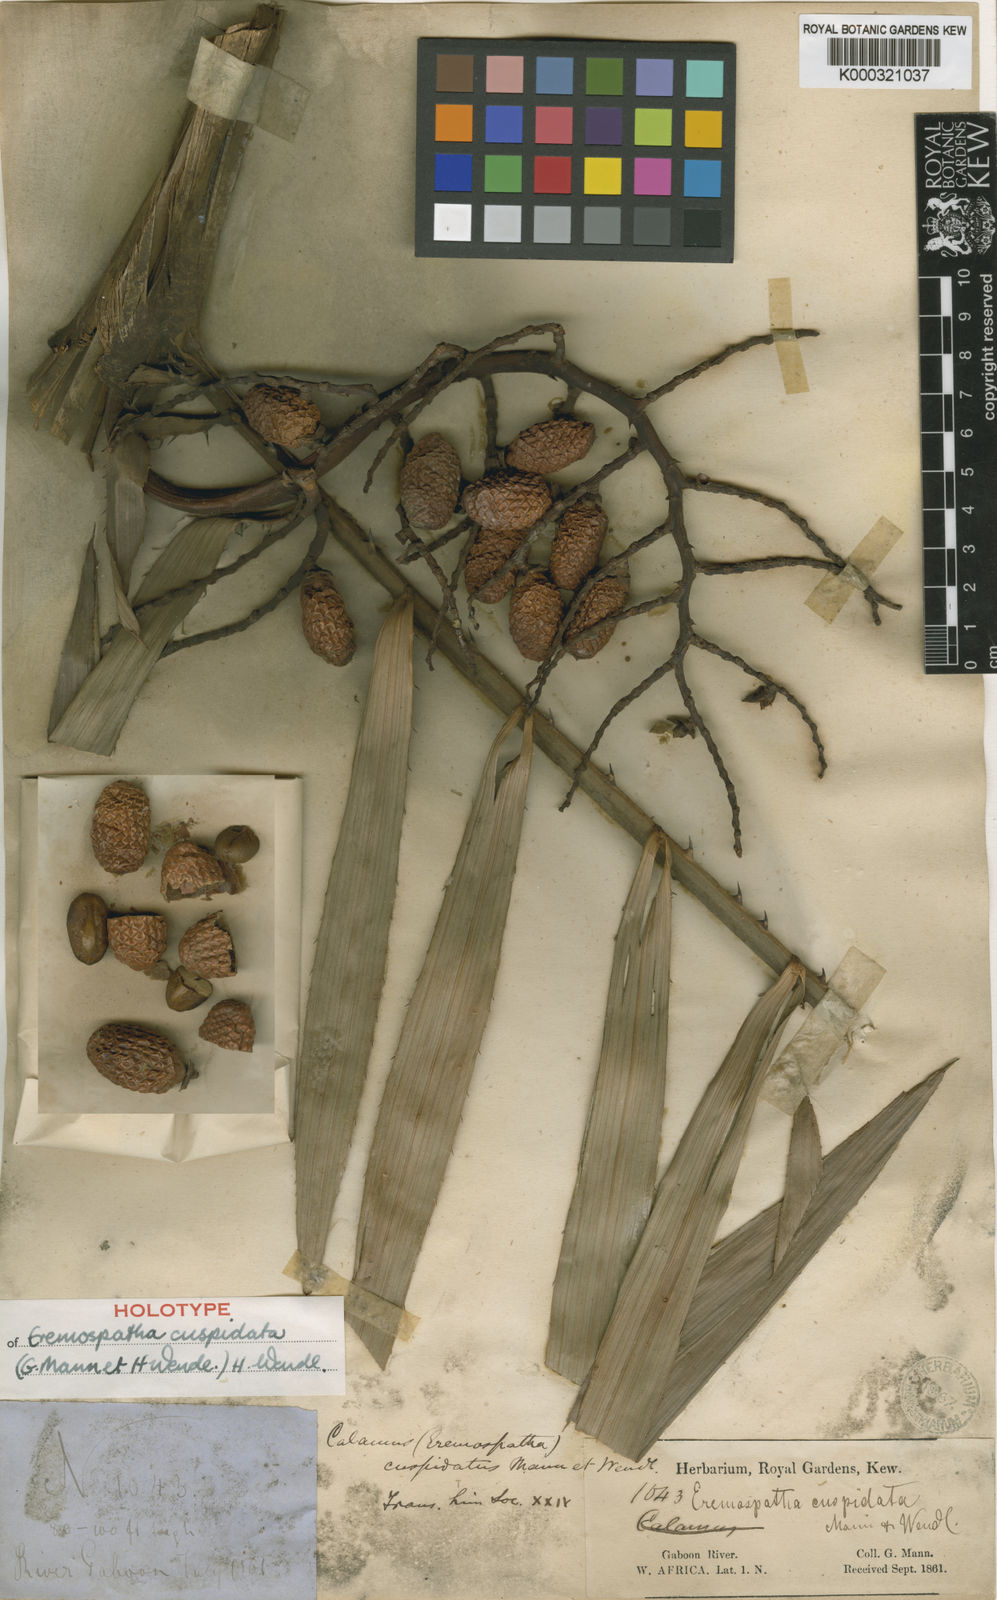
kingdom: Plantae
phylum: Tracheophyta
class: Liliopsida
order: Arecales
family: Arecaceae
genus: Eremospatha
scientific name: Eremospatha cuspidata
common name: Rattan
